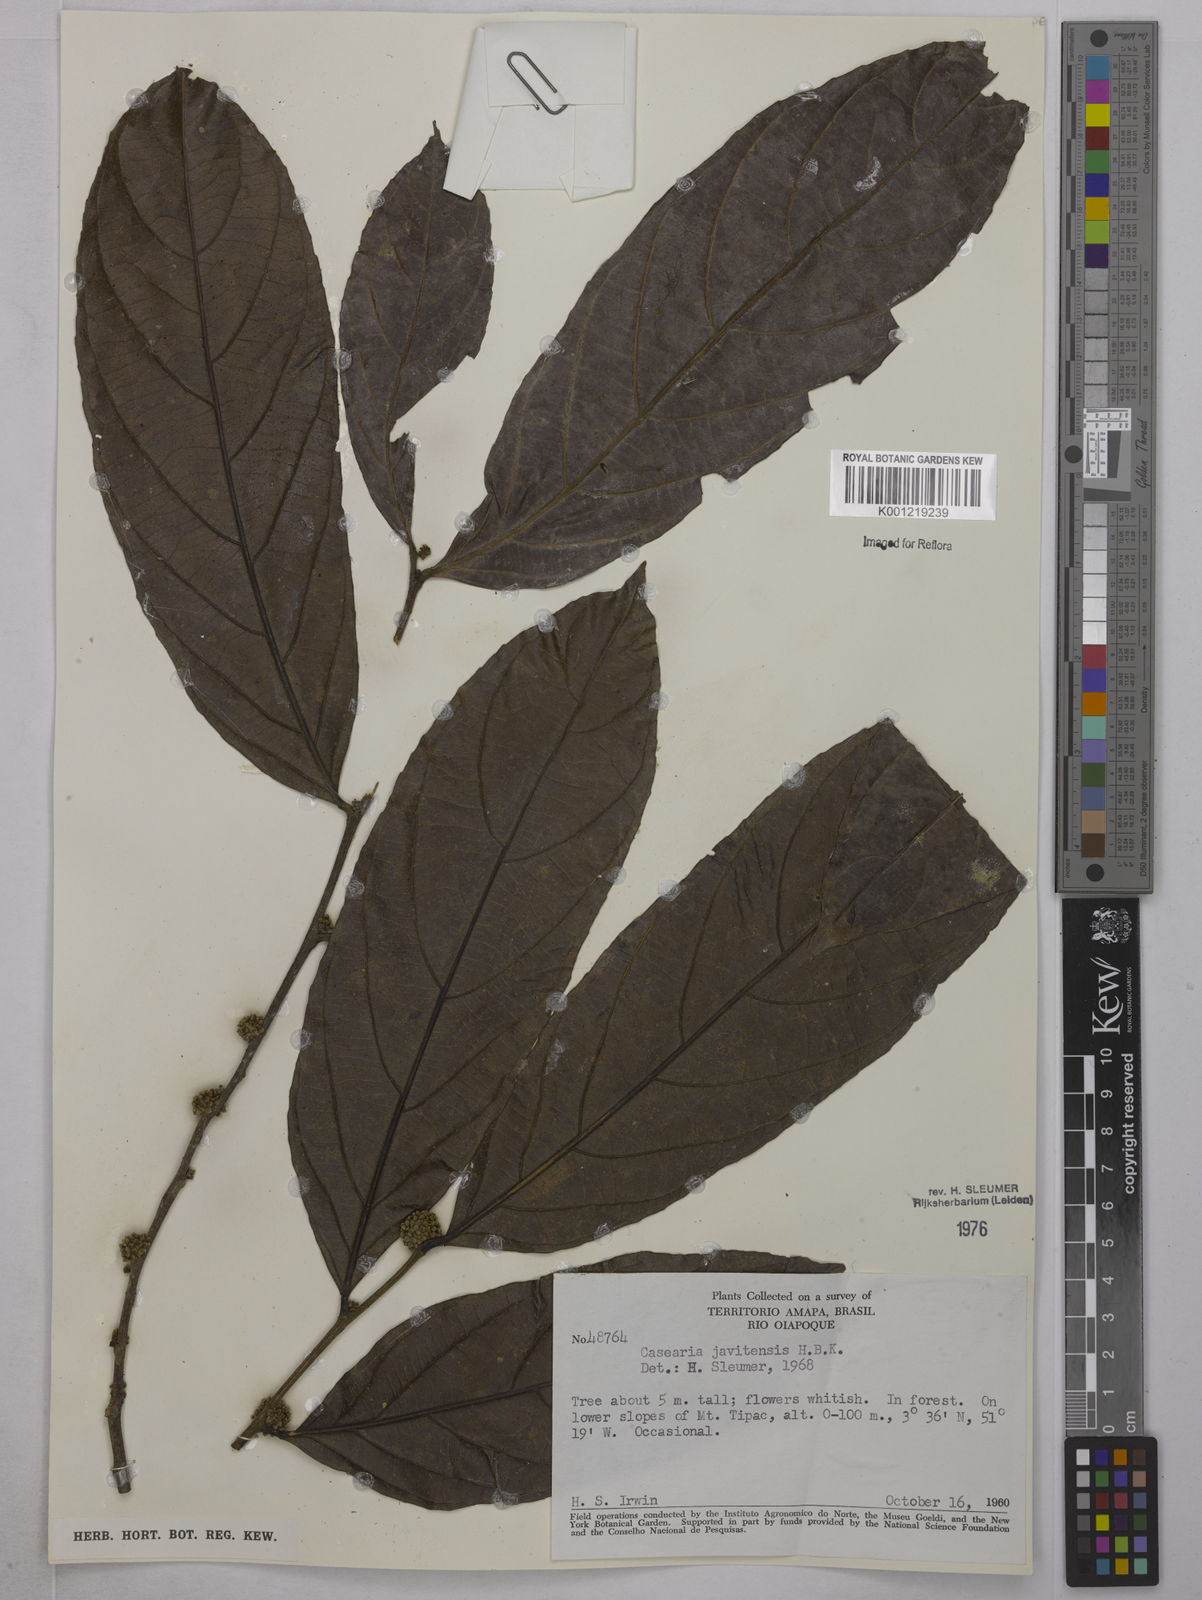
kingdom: Plantae
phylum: Tracheophyta
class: Magnoliopsida
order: Malpighiales
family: Salicaceae
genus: Piparea
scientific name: Piparea multiflora
